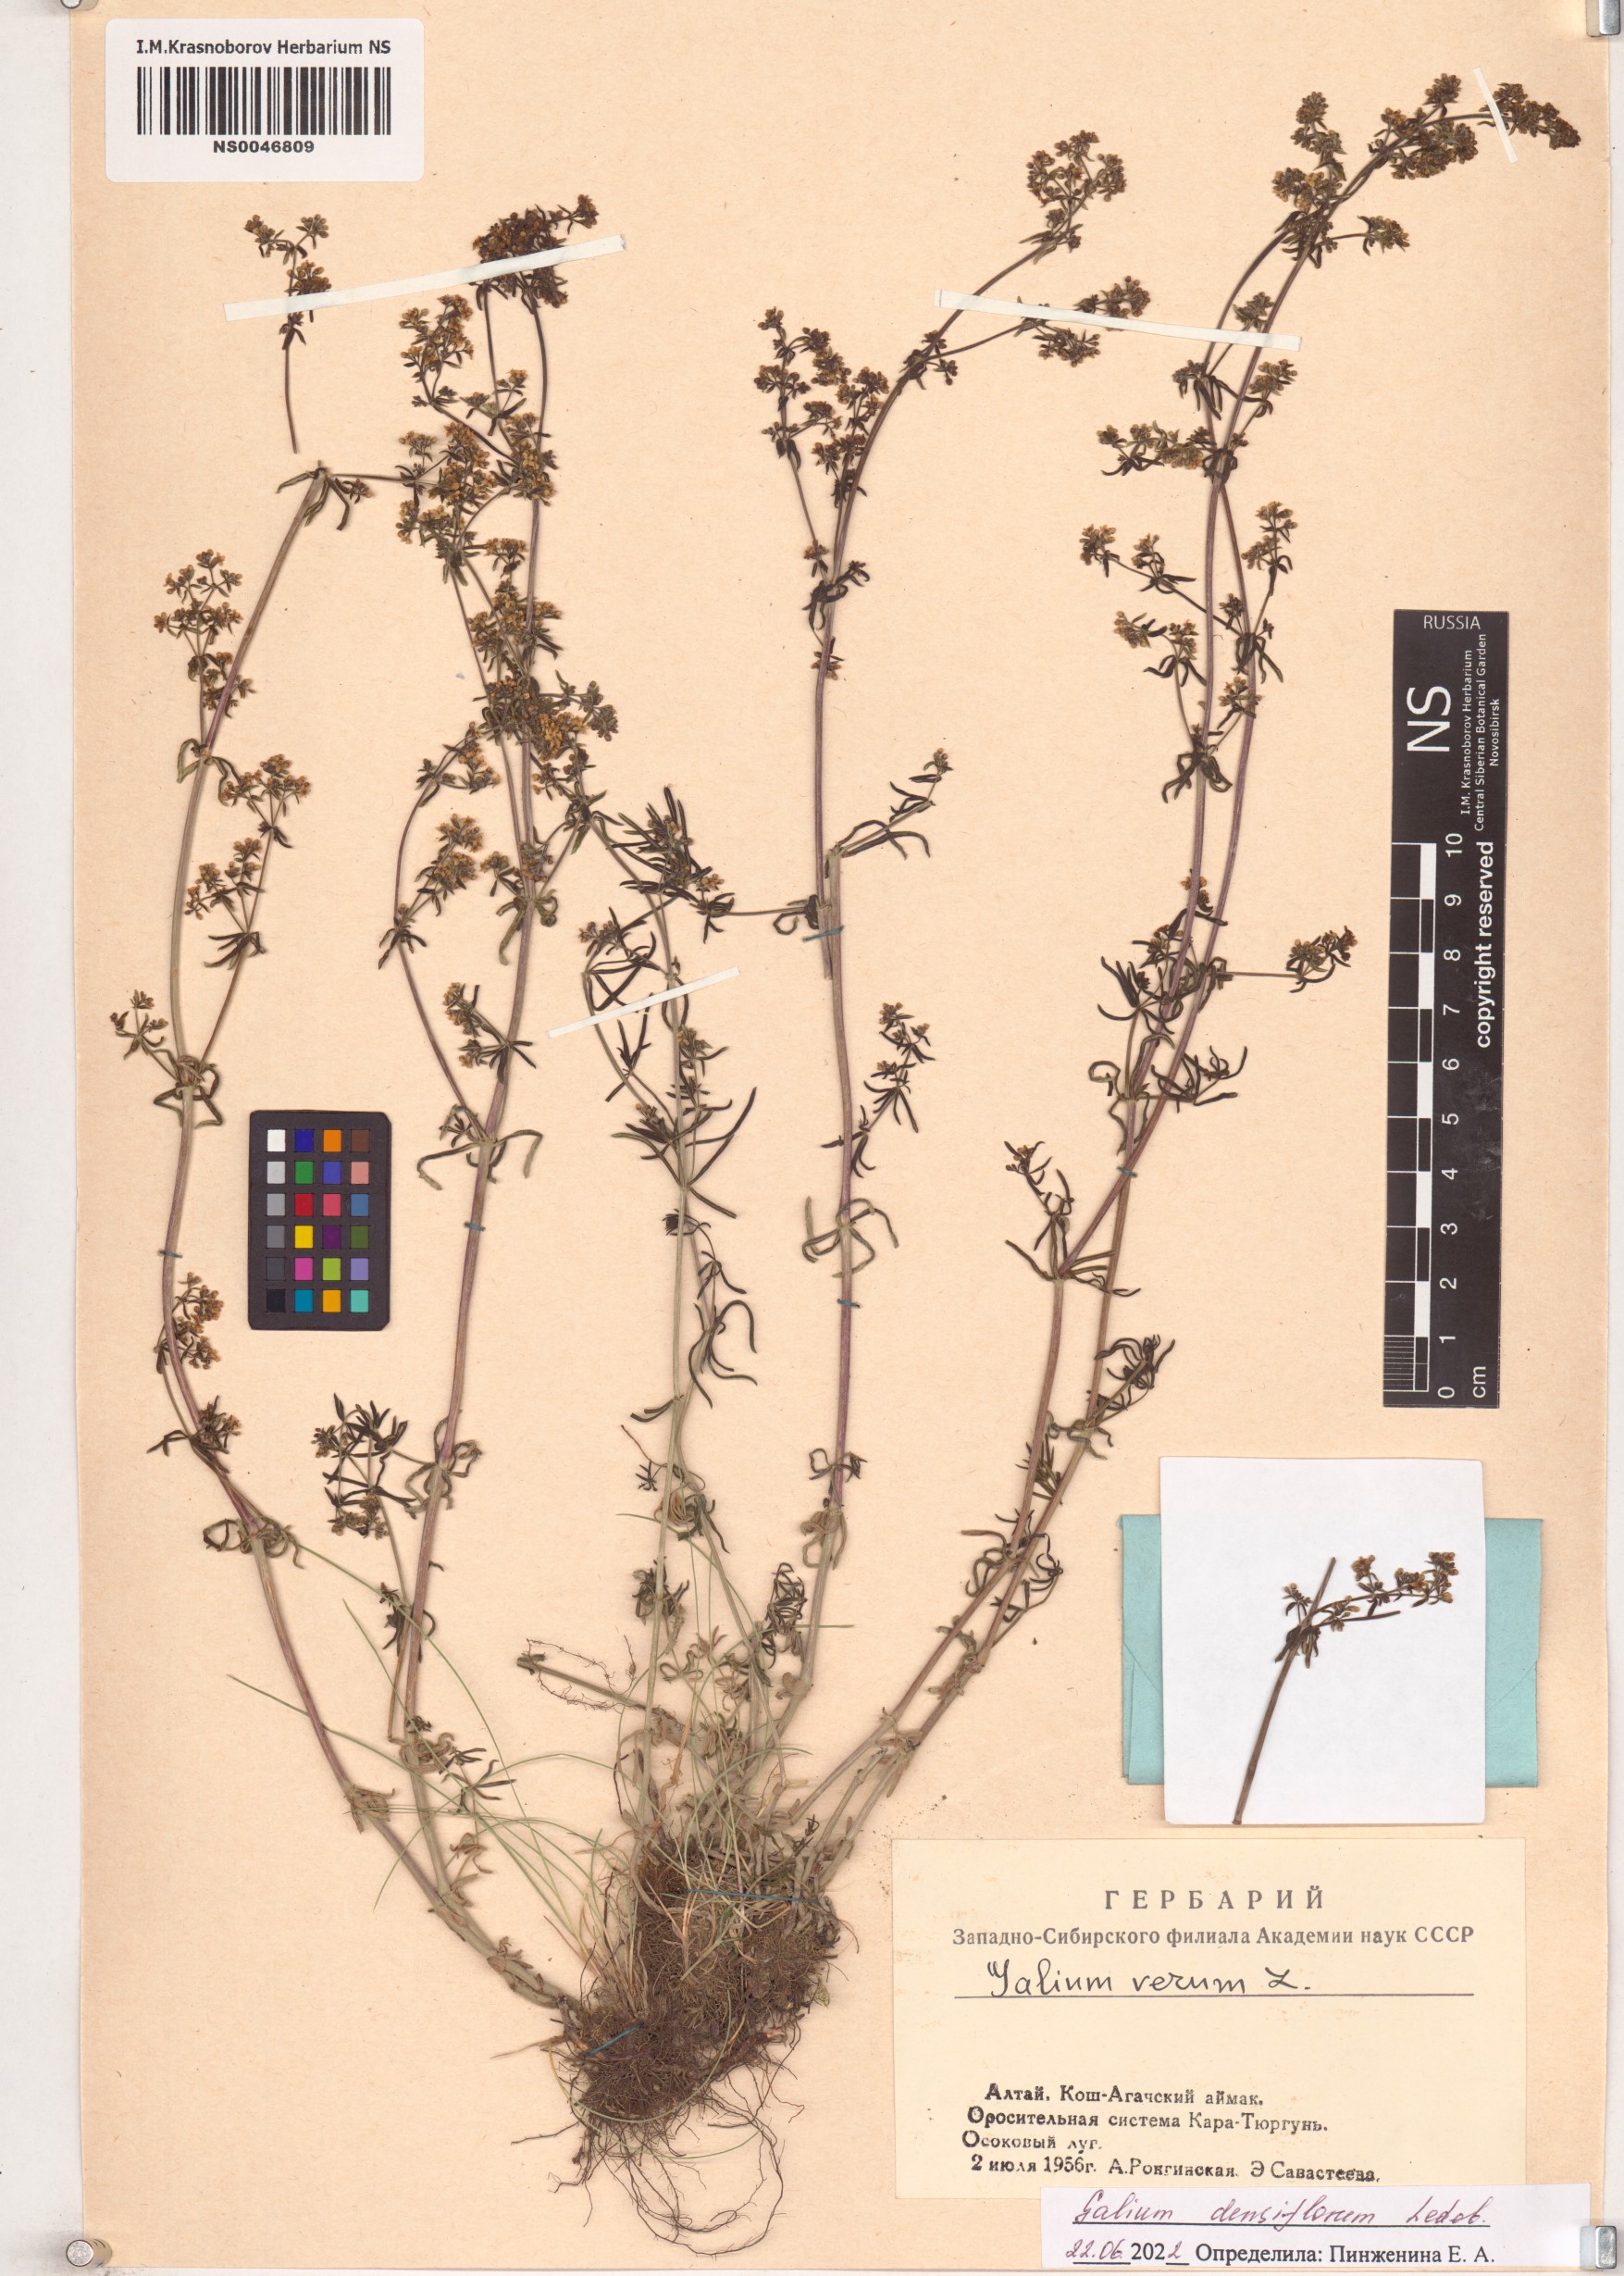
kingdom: Plantae
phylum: Tracheophyta
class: Magnoliopsida
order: Gentianales
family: Rubiaceae
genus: Galium
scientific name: Galium densiflorum
